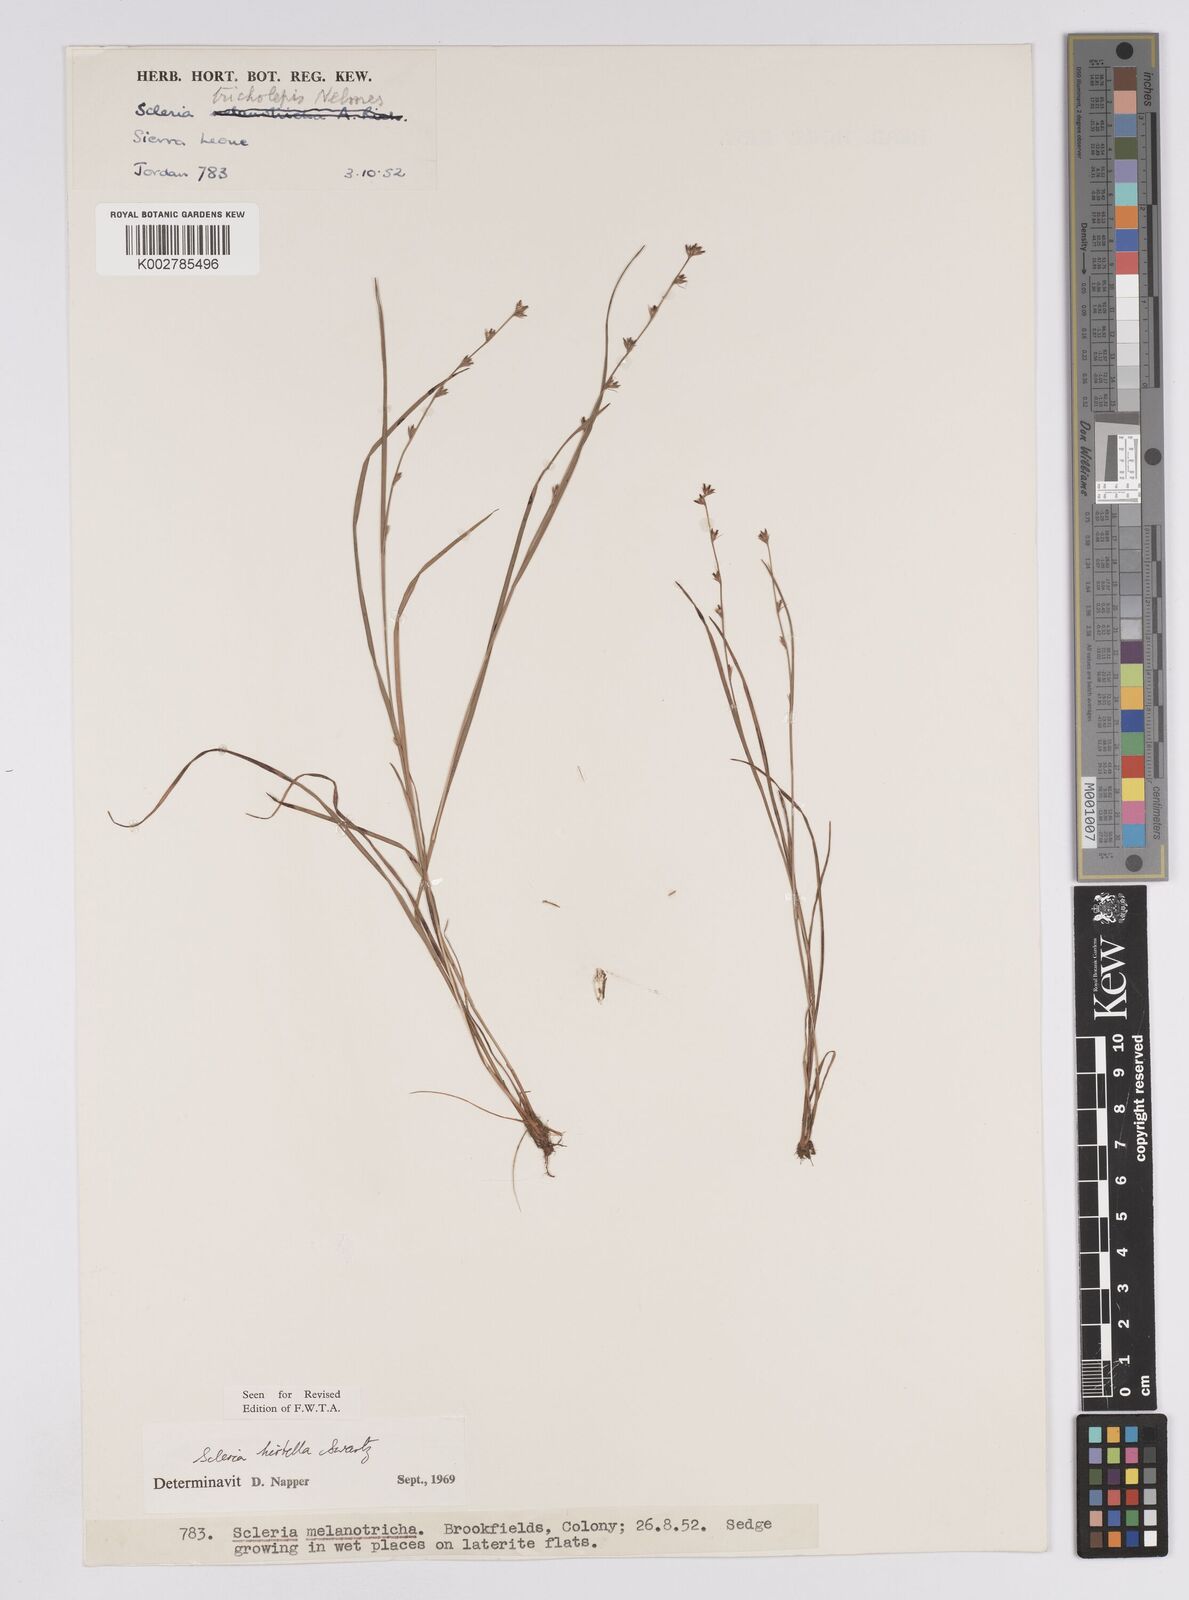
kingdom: Plantae
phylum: Tracheophyta
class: Liliopsida
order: Poales
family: Cyperaceae
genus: Scleria
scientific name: Scleria tricholepis
